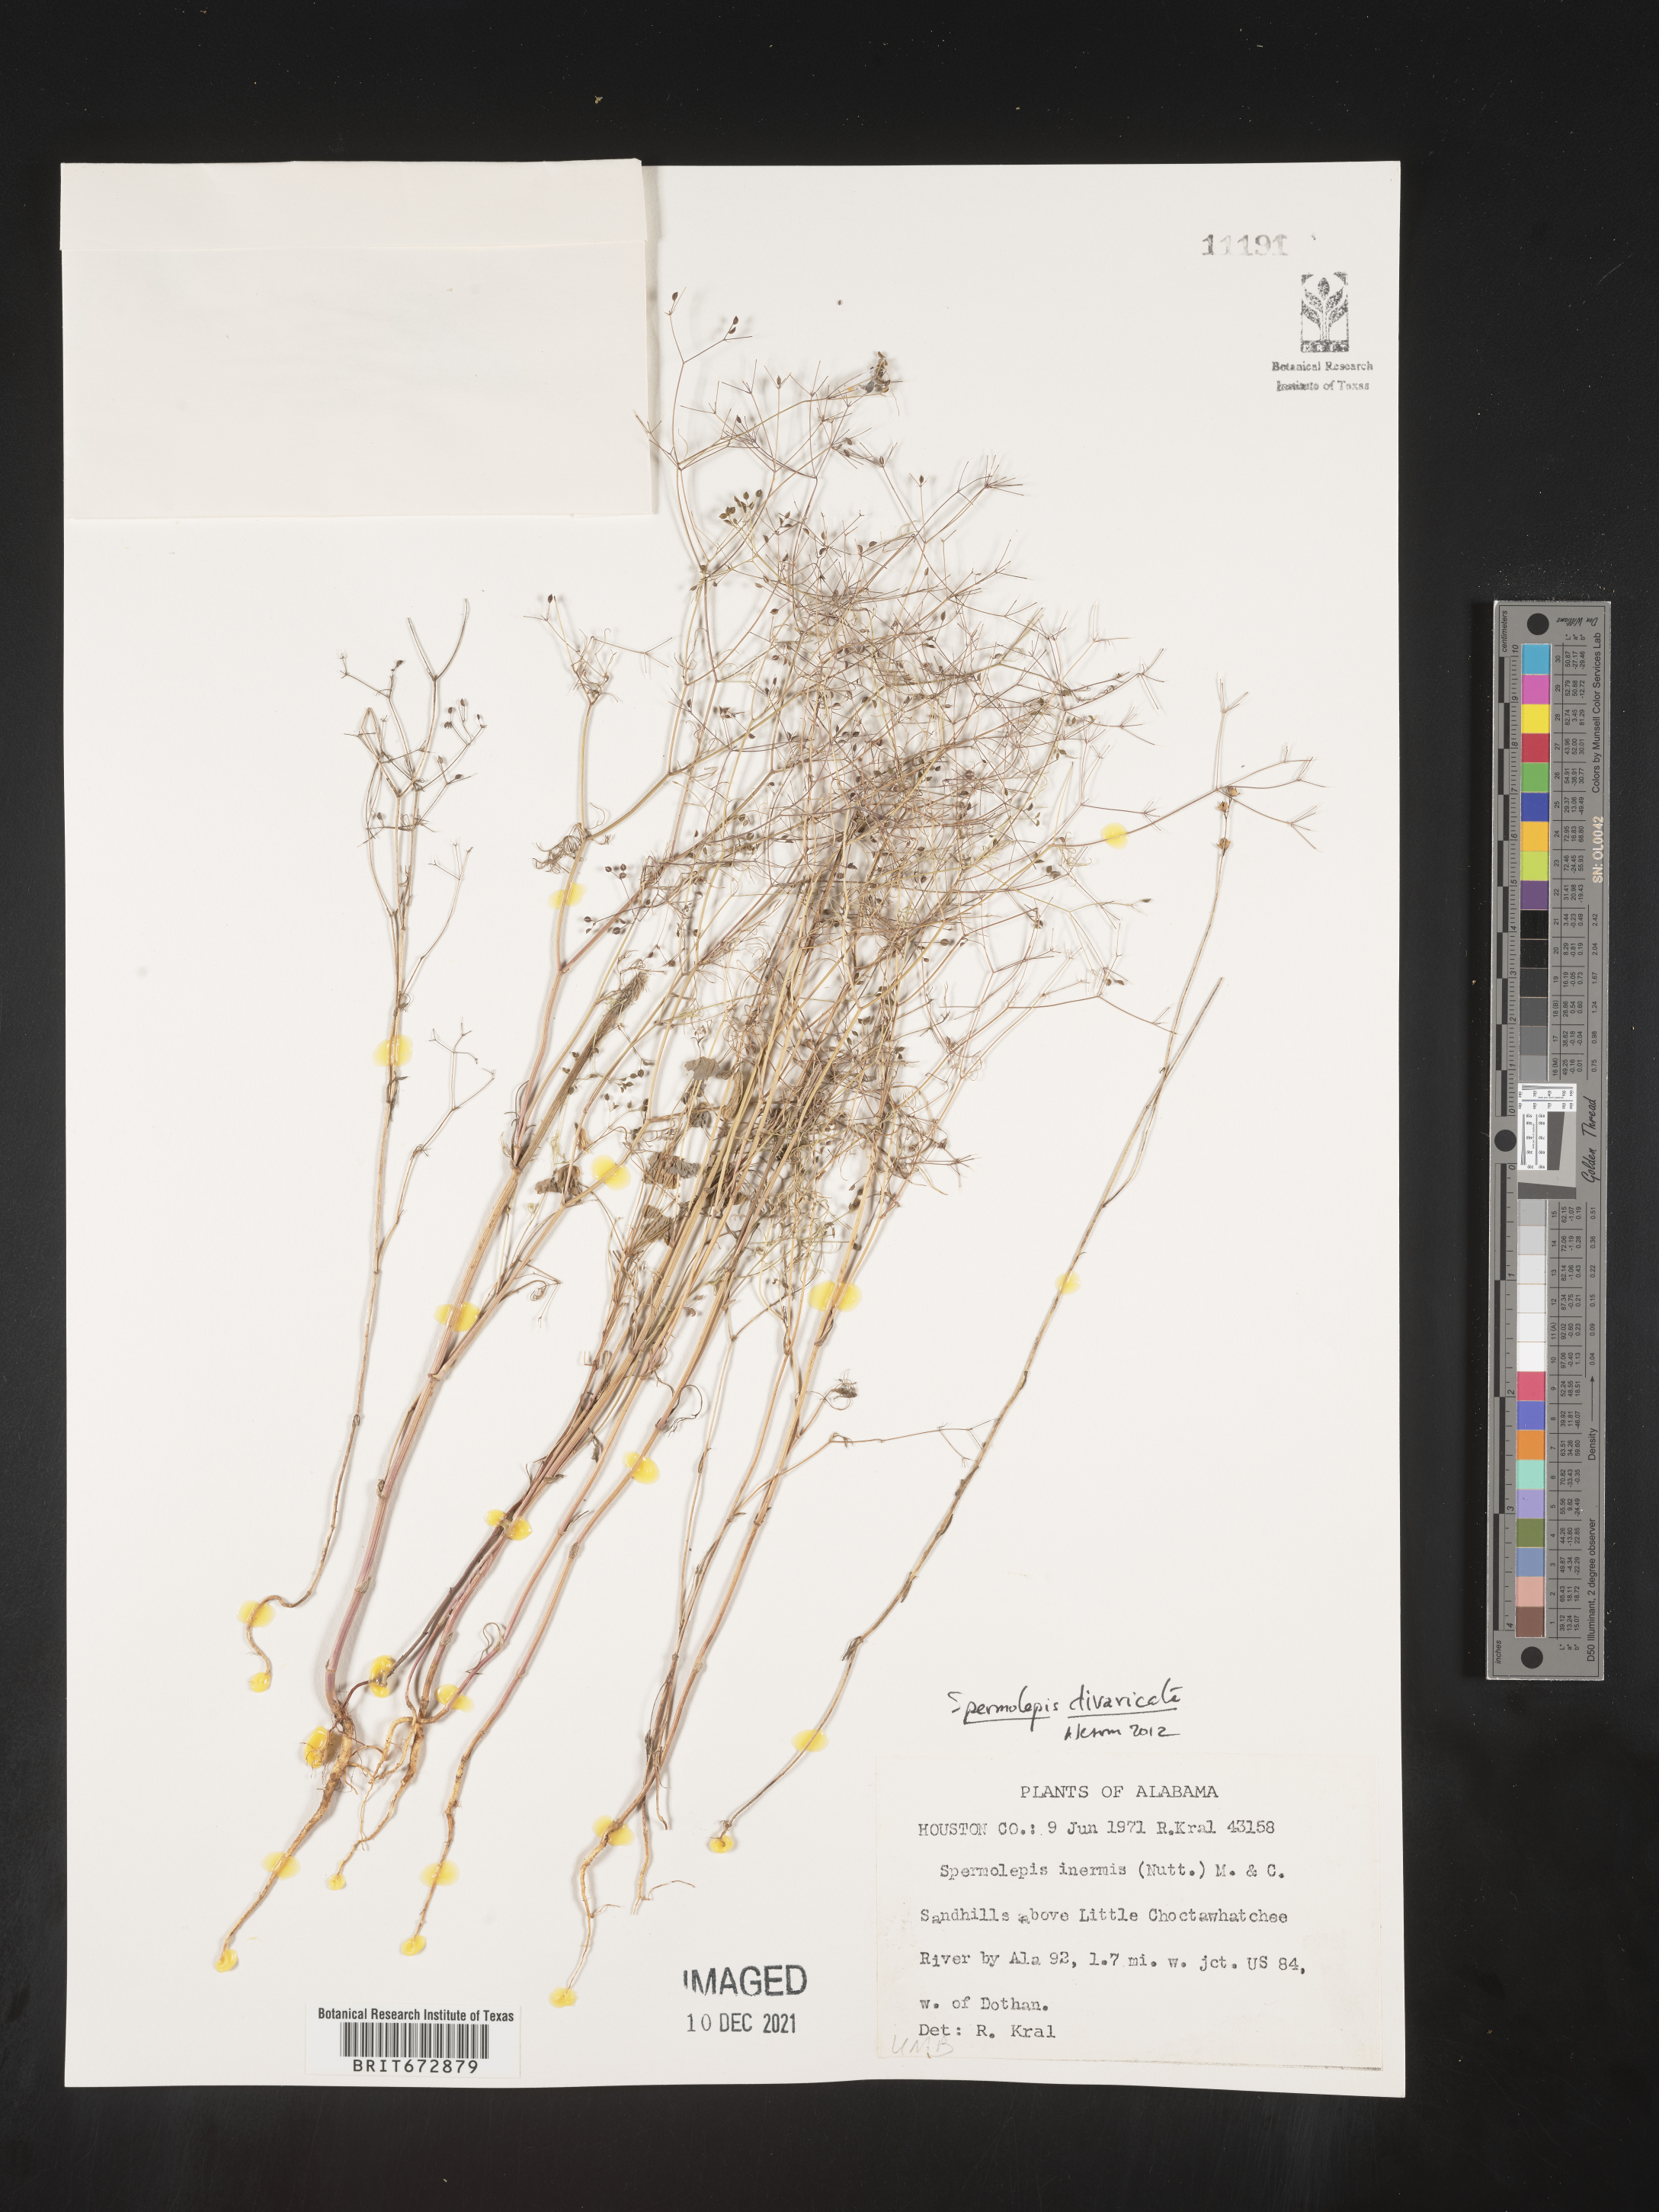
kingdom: Plantae
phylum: Tracheophyta
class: Magnoliopsida
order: Apiales
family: Apiaceae
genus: Spermolepis
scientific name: Spermolepis divaricata
